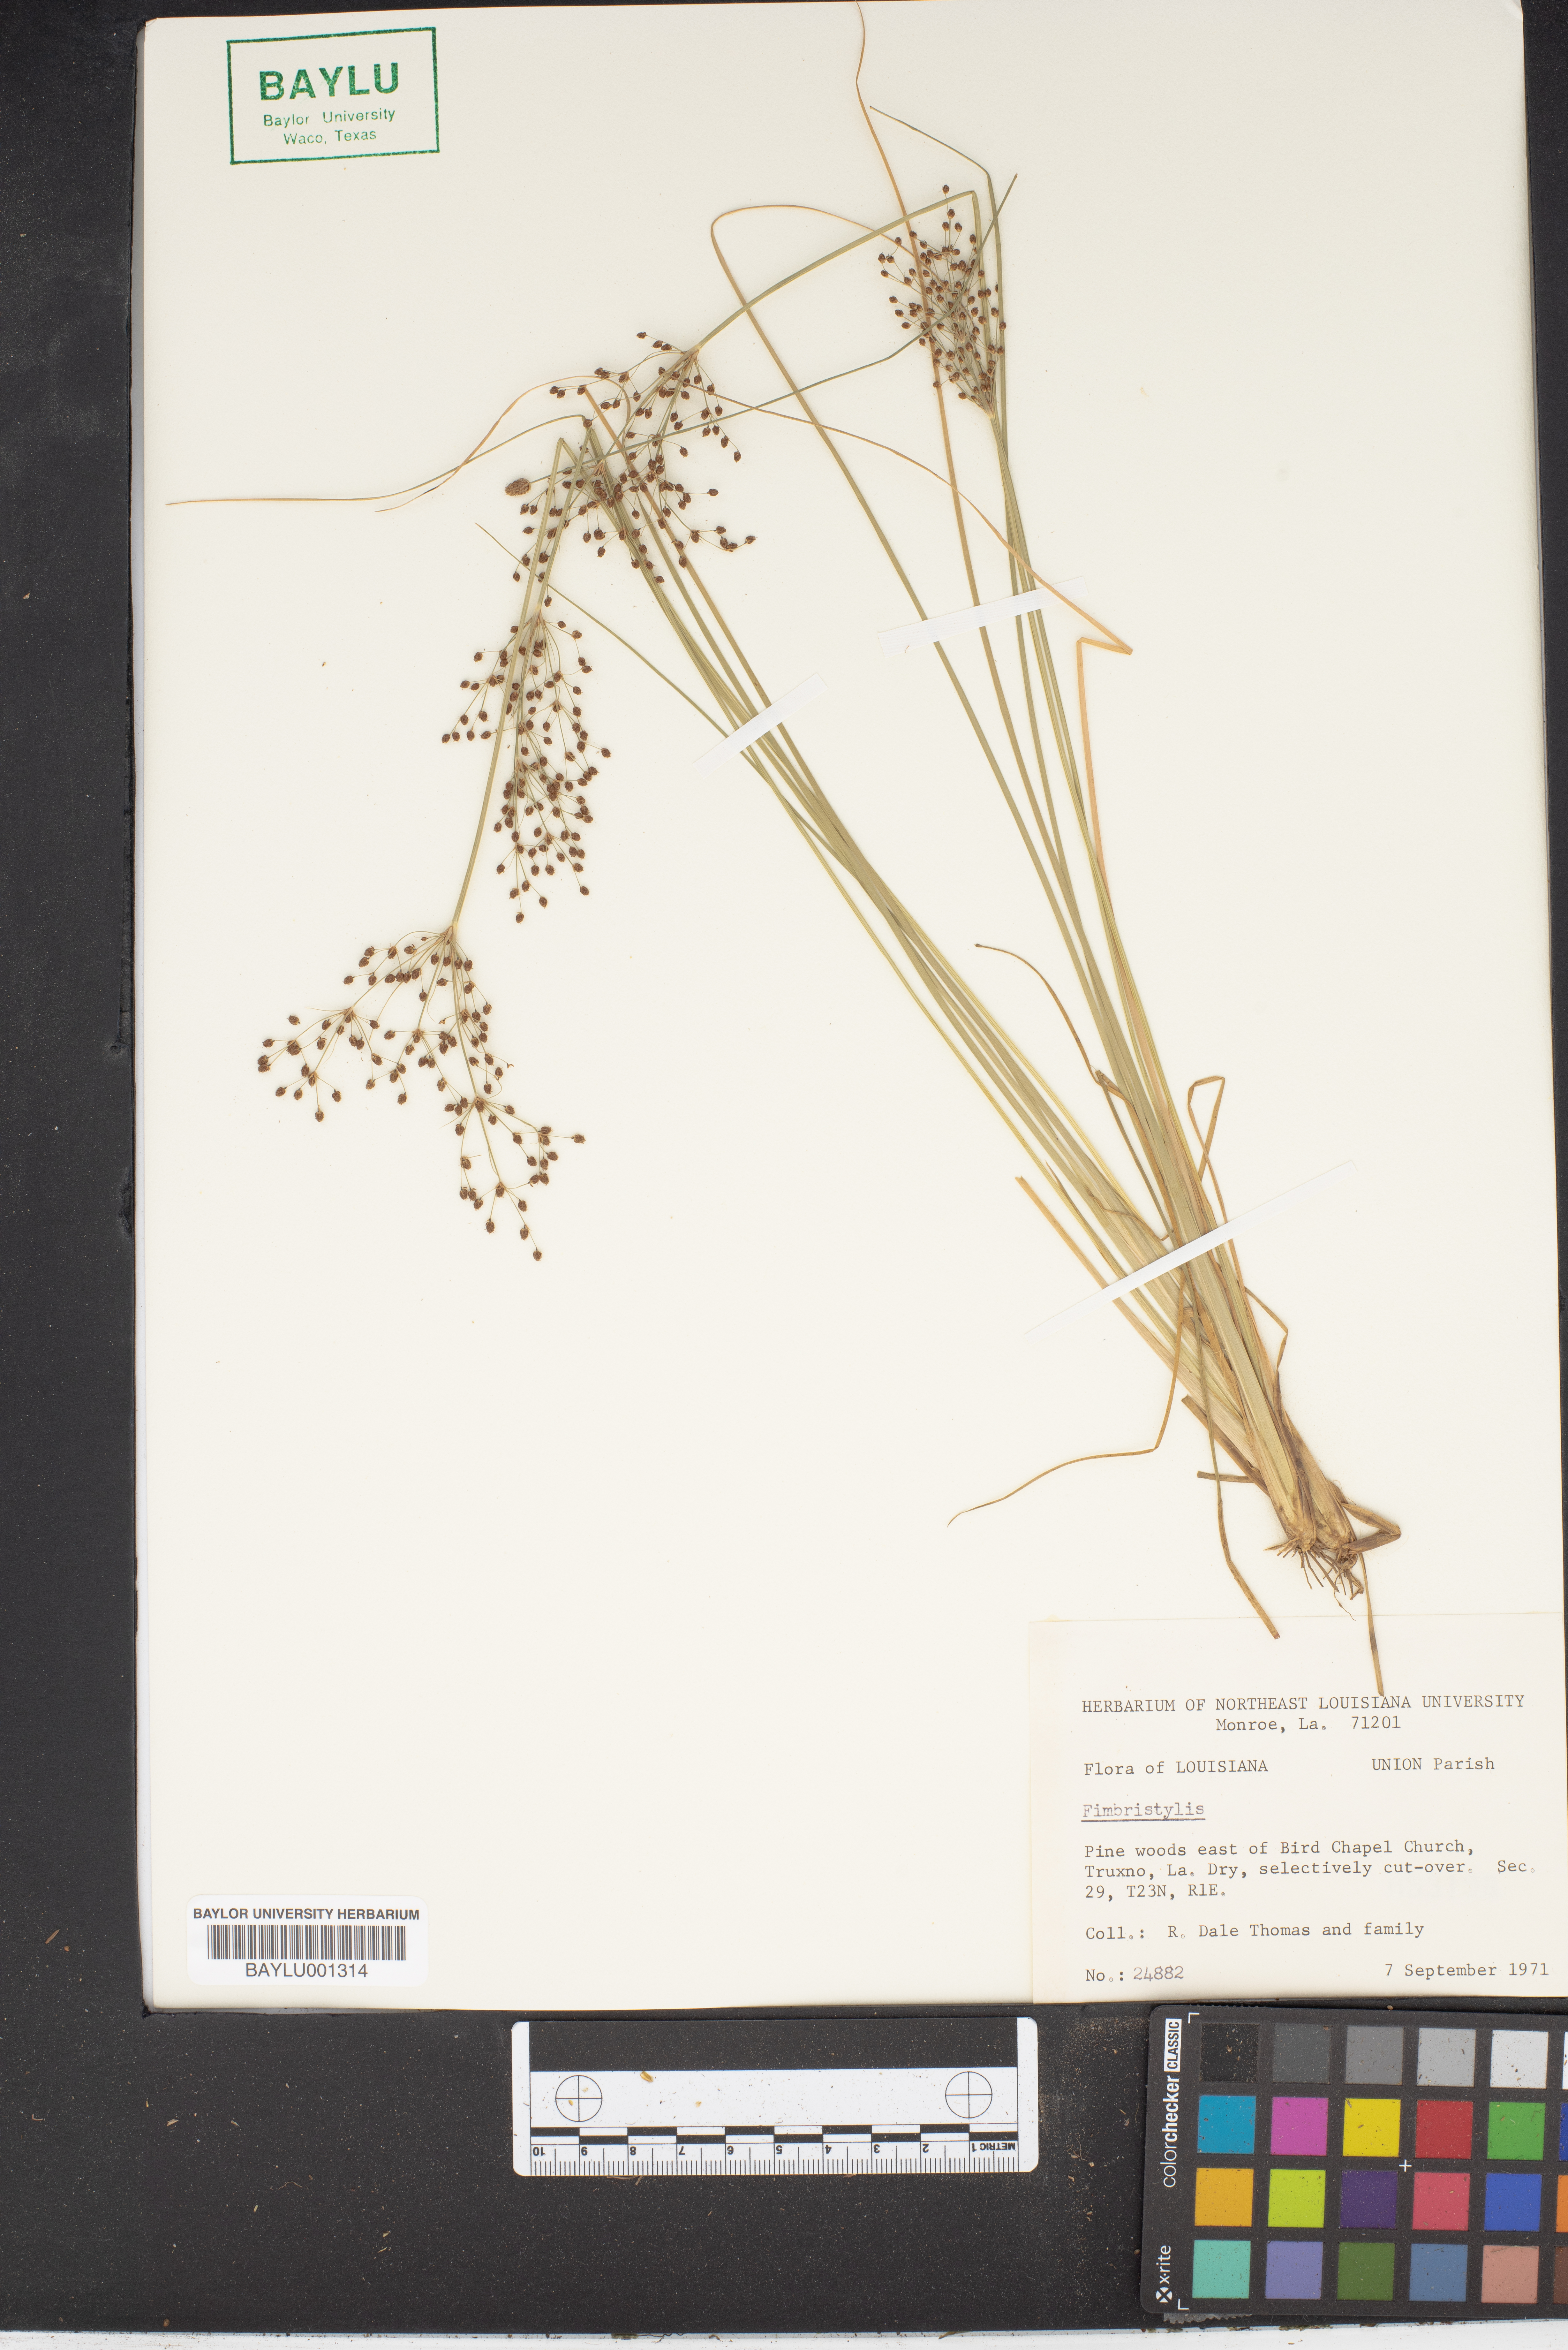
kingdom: Plantae
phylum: Tracheophyta
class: Liliopsida
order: Poales
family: Cyperaceae
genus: Fimbristylis
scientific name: Fimbristylis
